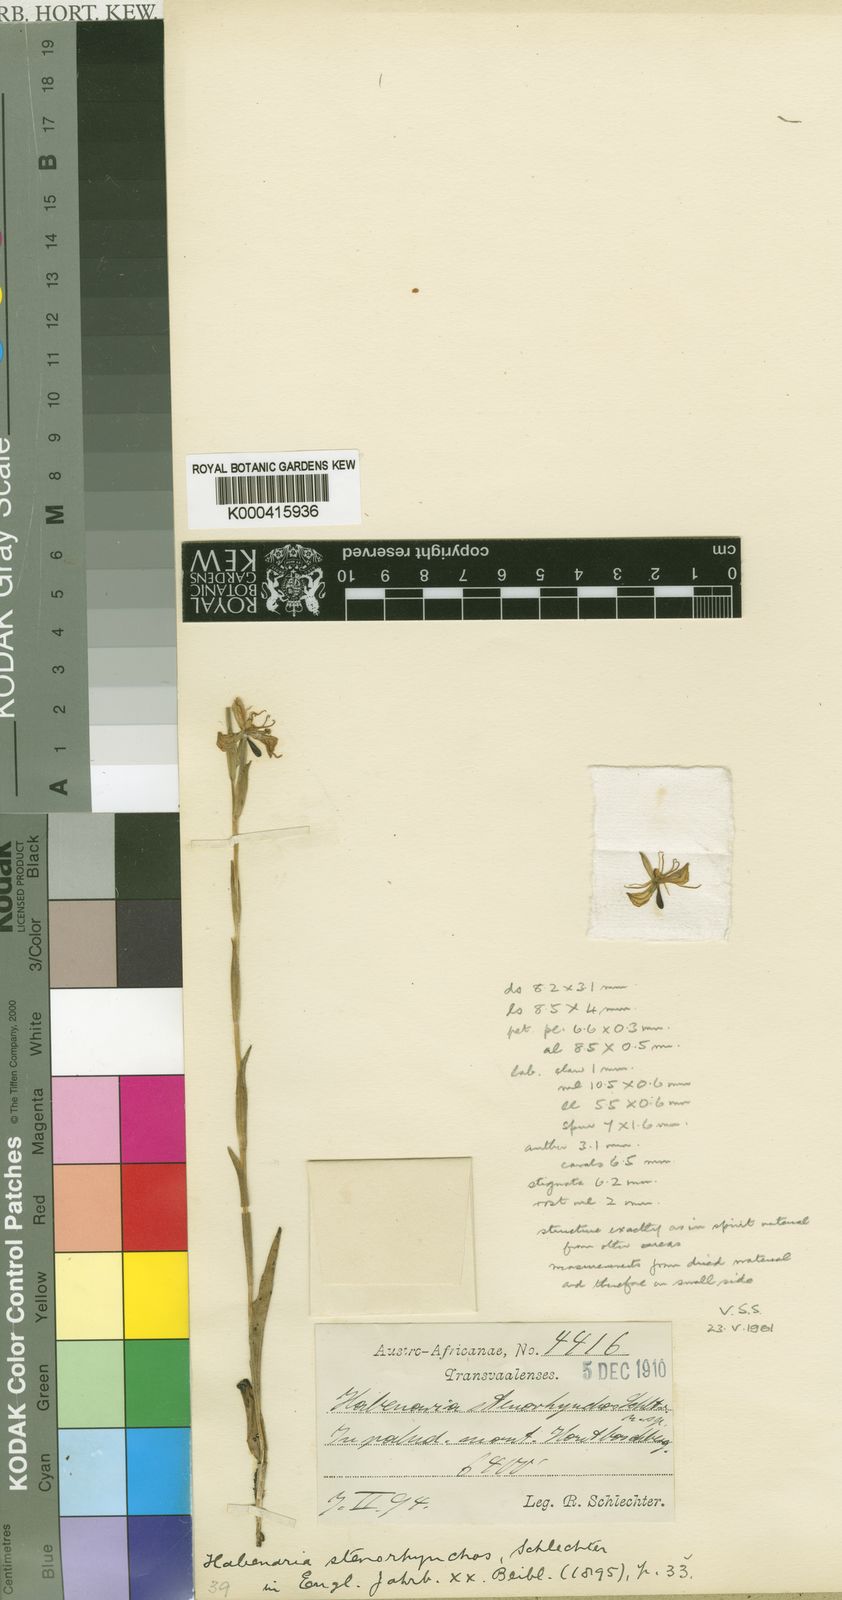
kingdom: Plantae
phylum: Tracheophyta
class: Liliopsida
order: Asparagales
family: Orchidaceae
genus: Habenaria
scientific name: Habenaria stenorhynchos
